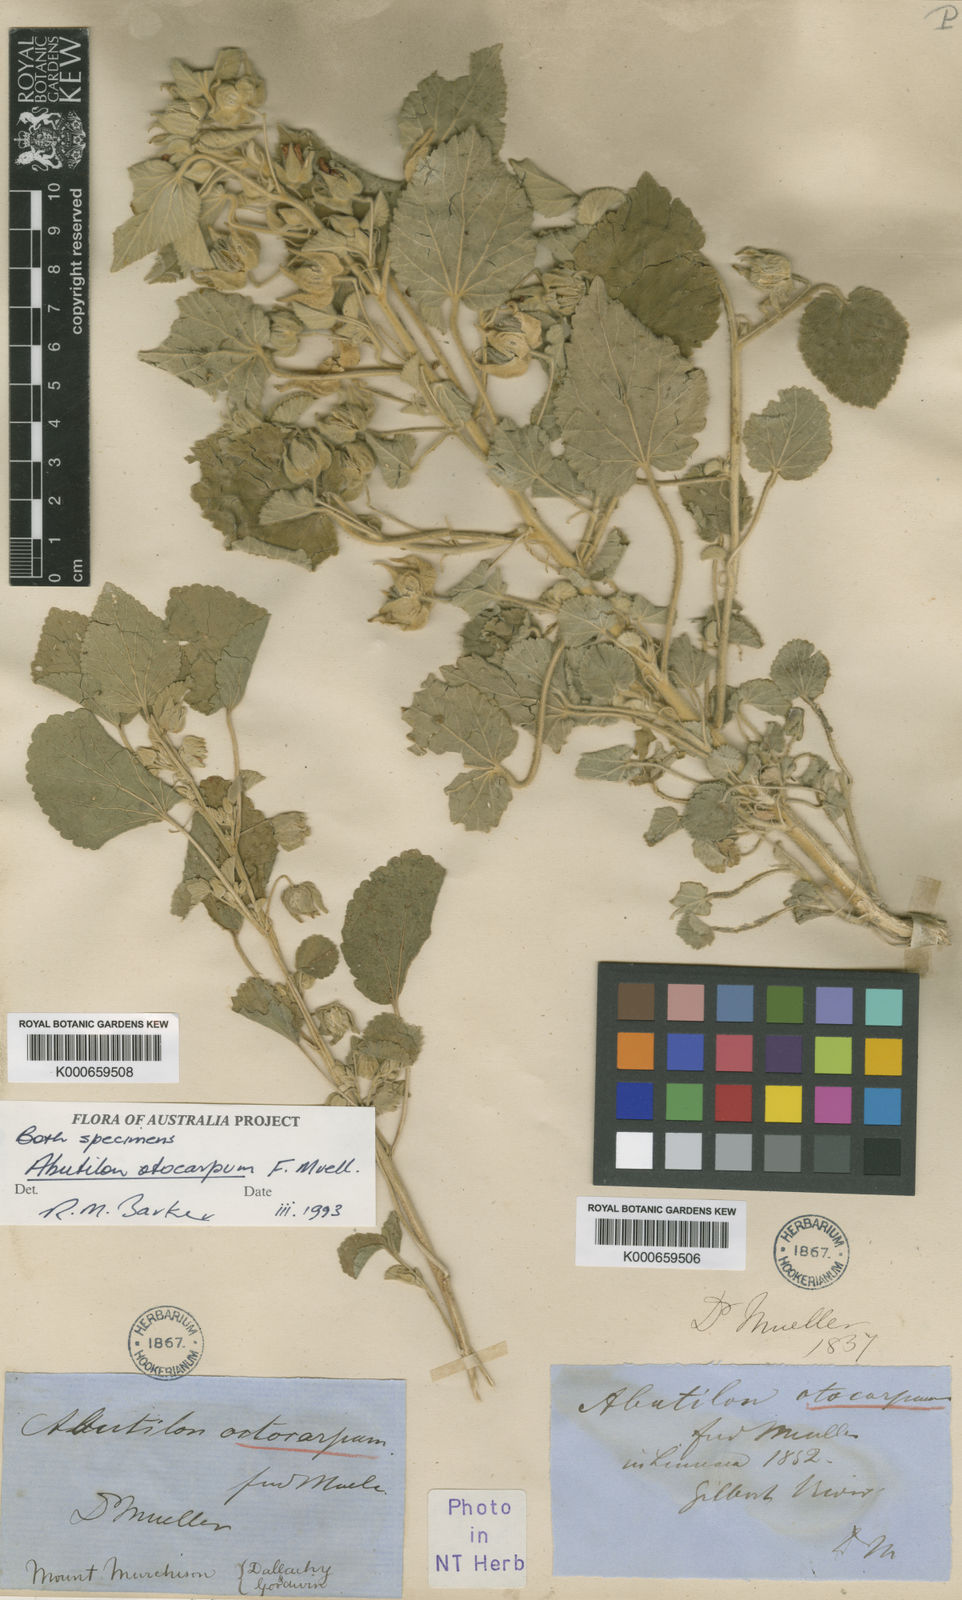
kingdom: Plantae
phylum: Tracheophyta
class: Magnoliopsida
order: Malvales
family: Malvaceae
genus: Abutilon
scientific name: Abutilon otocarpum
